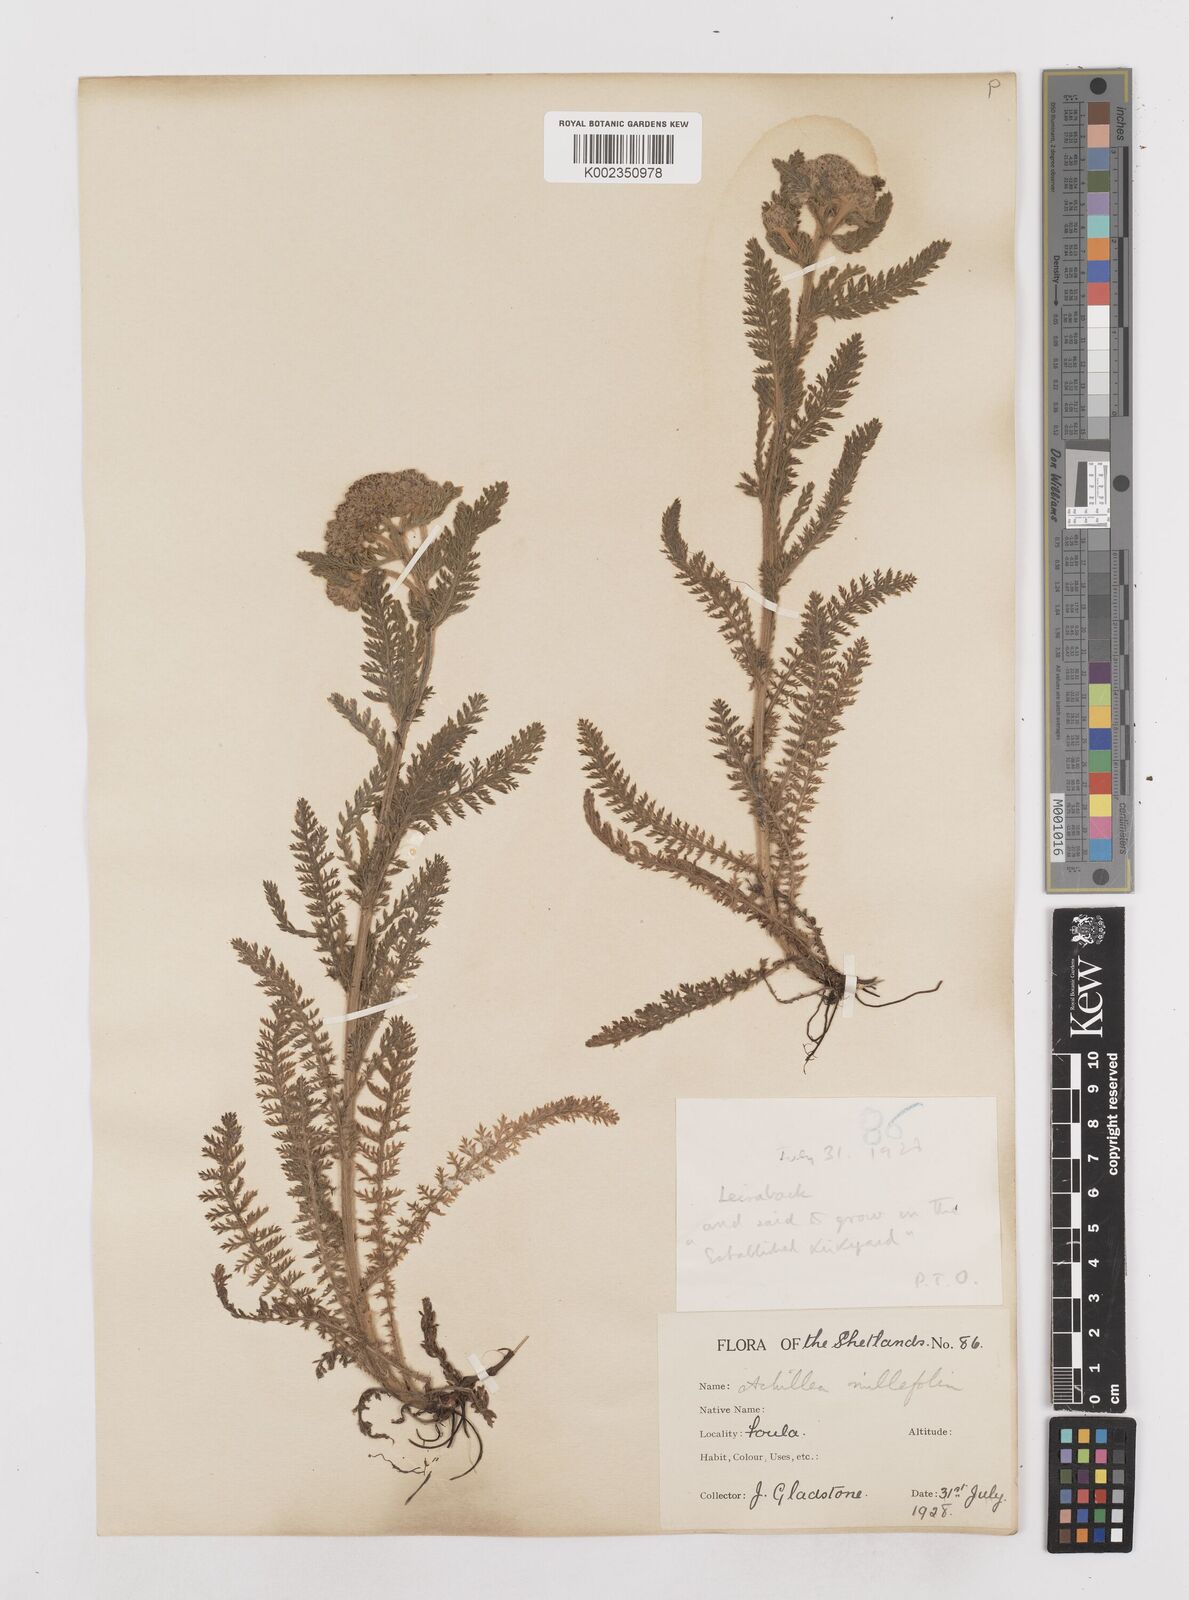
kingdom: Plantae
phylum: Tracheophyta
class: Magnoliopsida
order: Asterales
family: Asteraceae
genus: Achillea
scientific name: Achillea millefolium
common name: Yarrow
